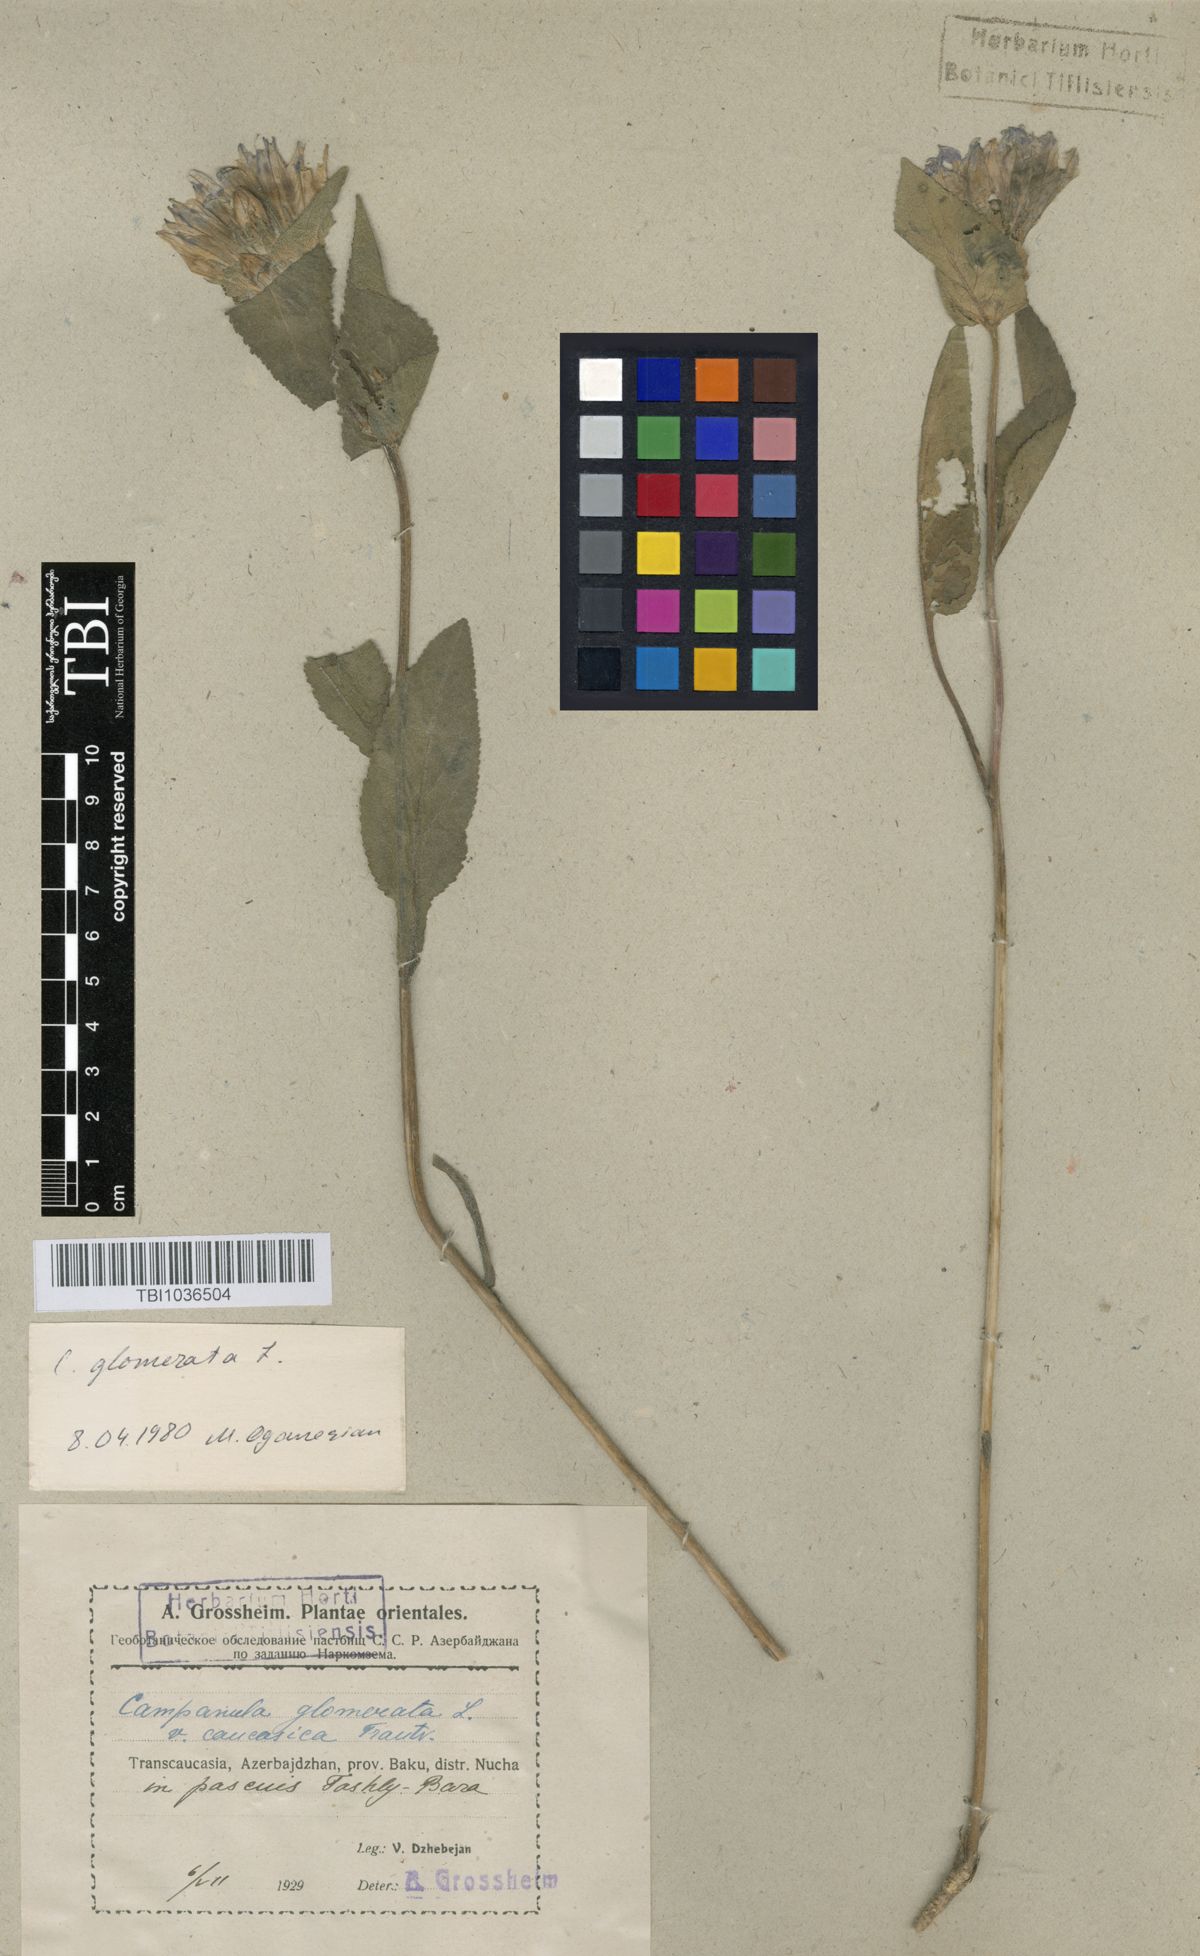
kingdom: Plantae
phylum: Tracheophyta
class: Magnoliopsida
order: Asterales
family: Campanulaceae
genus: Campanula
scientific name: Campanula glomerata
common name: Clustered bellflower
